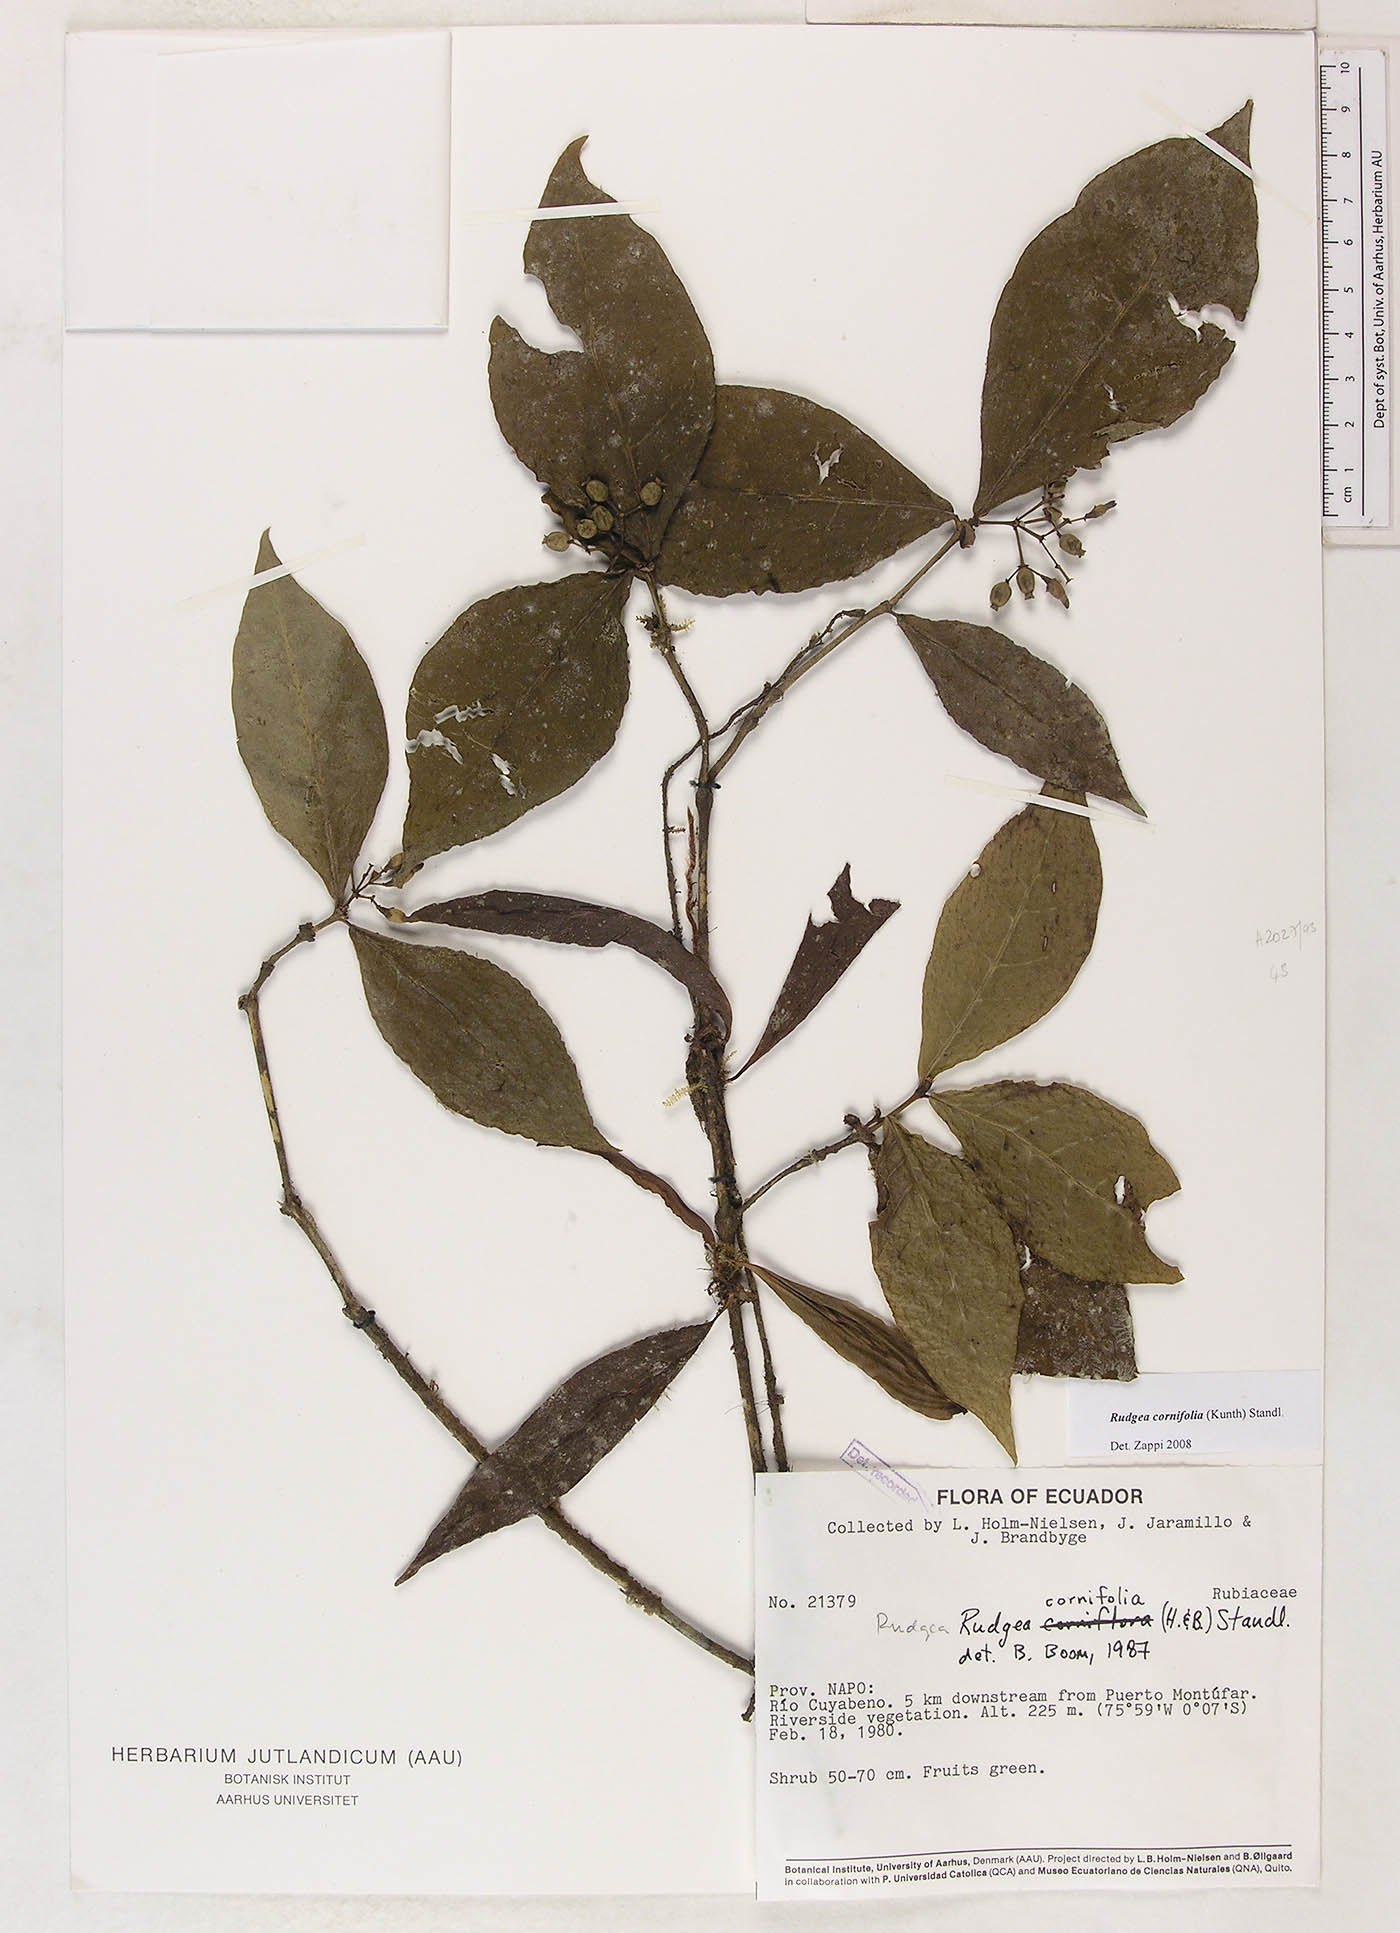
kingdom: Plantae
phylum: Tracheophyta
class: Magnoliopsida
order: Gentianales
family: Rubiaceae
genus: Rudgea
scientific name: Rudgea cornifolia
